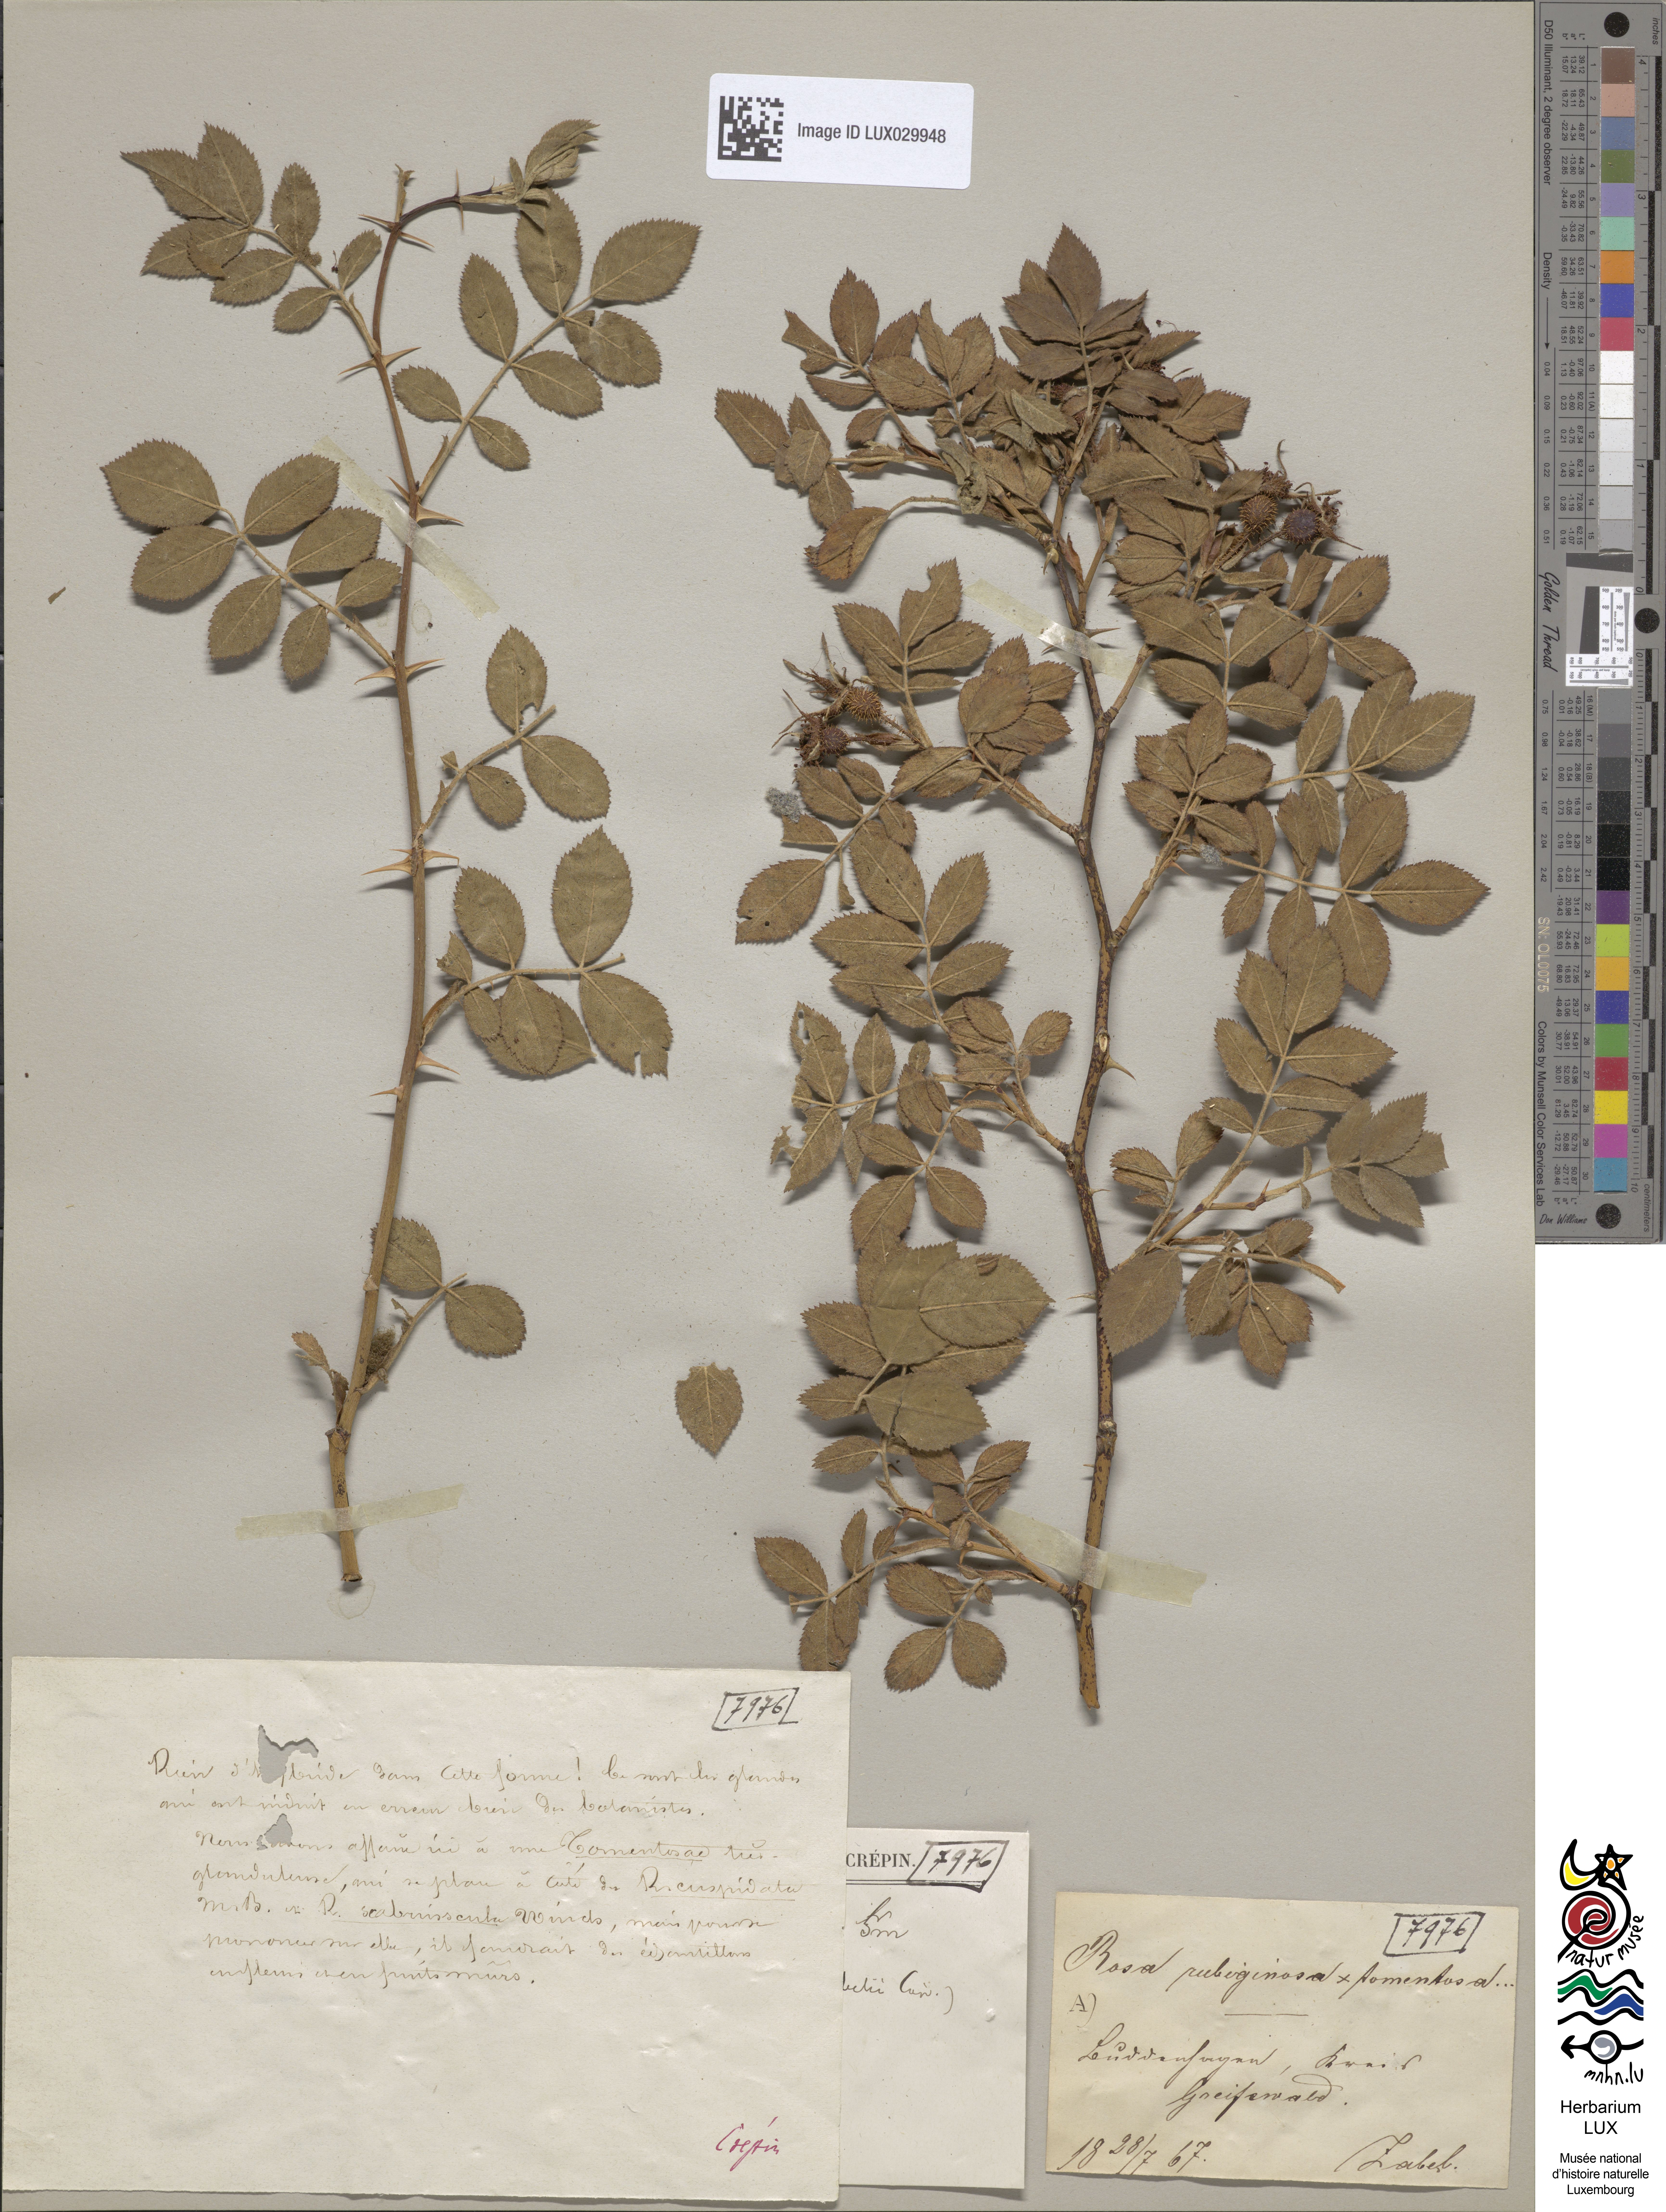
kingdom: Plantae
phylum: Tracheophyta
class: Magnoliopsida
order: Rosales
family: Rosaceae
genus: Rosa
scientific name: Rosa tomentosa
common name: Downy rose
